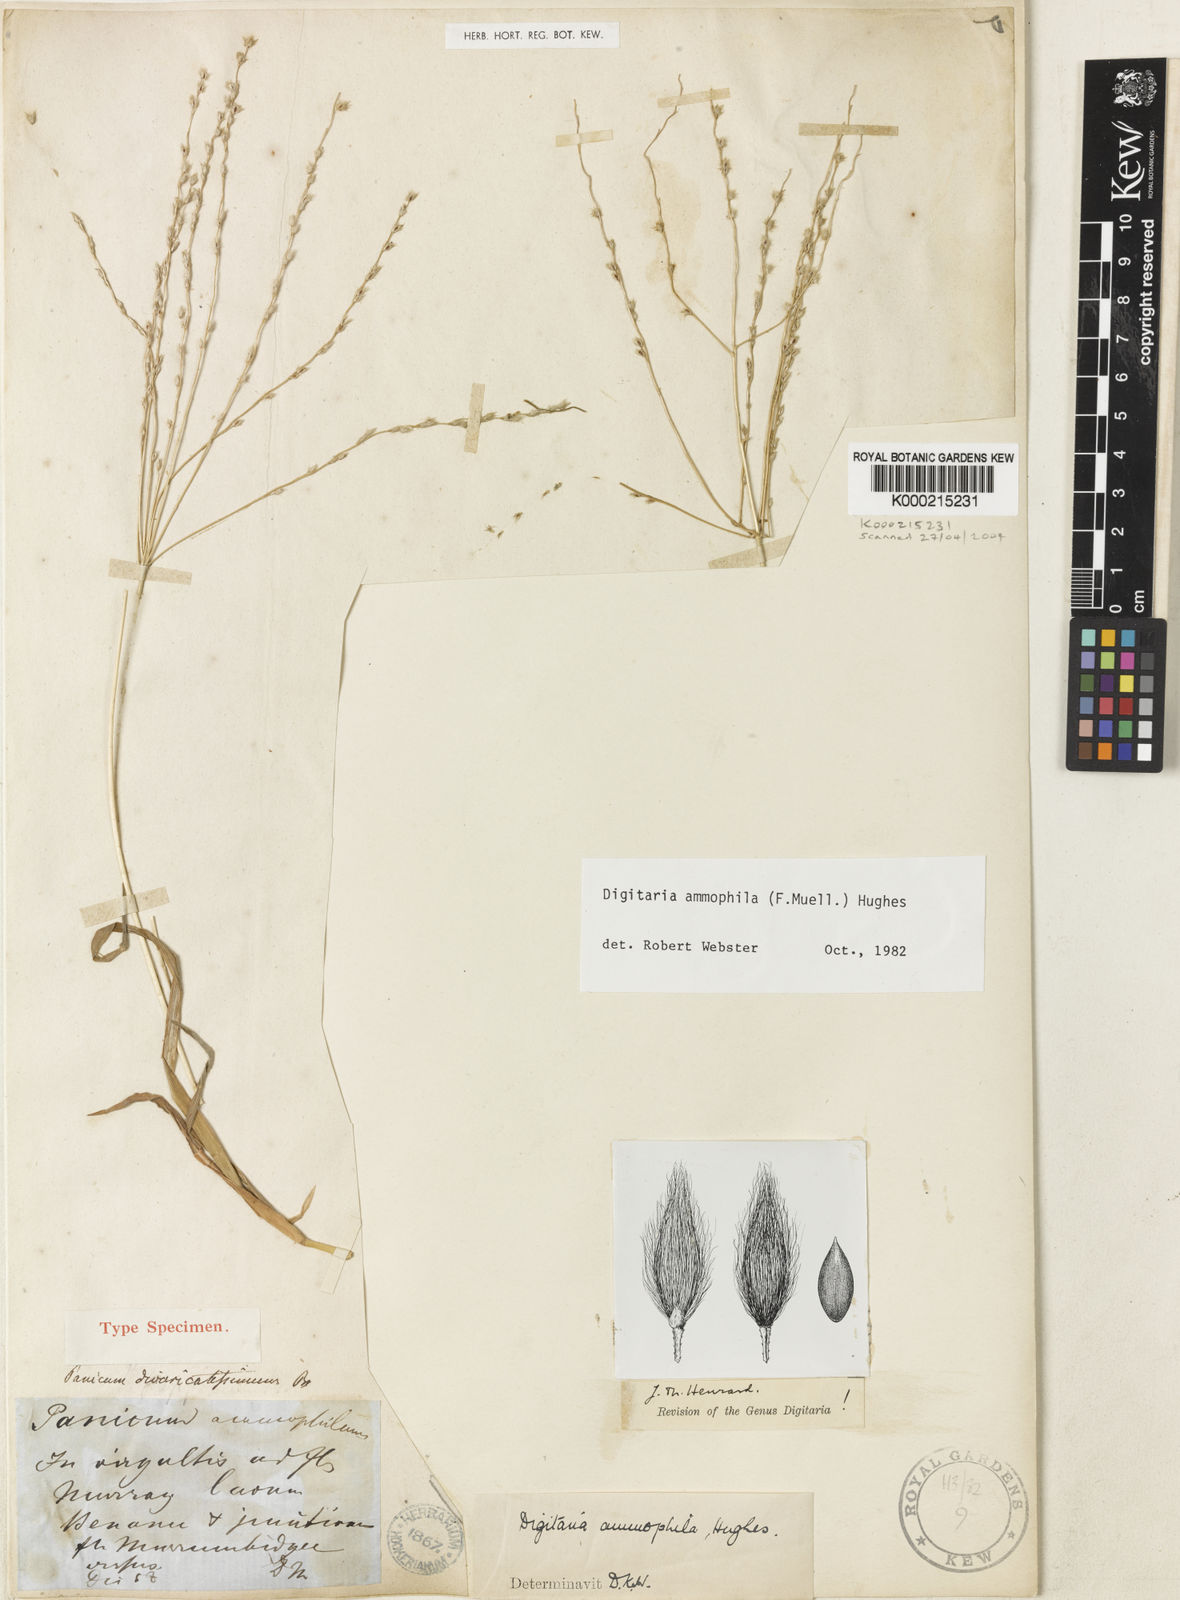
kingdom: Plantae
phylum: Tracheophyta
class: Liliopsida
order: Poales
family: Poaceae
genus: Digitaria
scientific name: Digitaria ammophila
